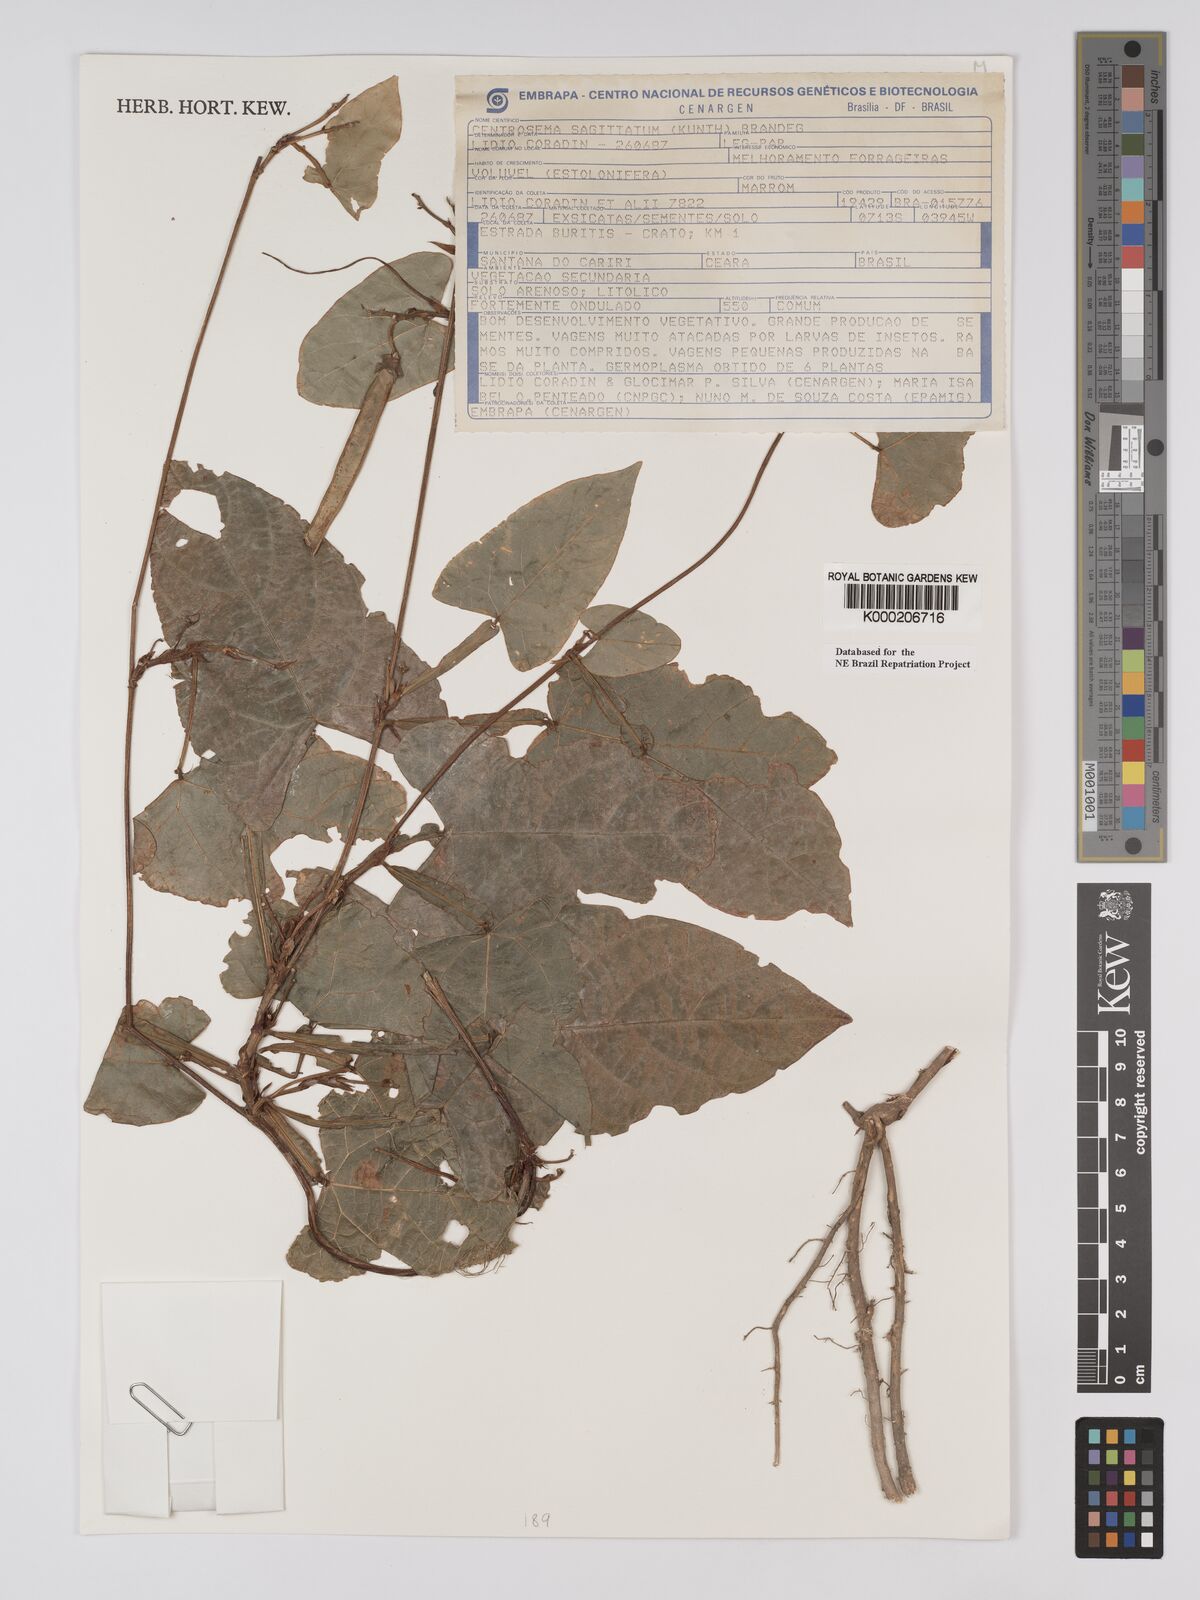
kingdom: Plantae
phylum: Tracheophyta
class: Magnoliopsida
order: Fabales
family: Fabaceae
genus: Centrosema
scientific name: Centrosema sagittatum
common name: Arrowleaf butterfly pea
